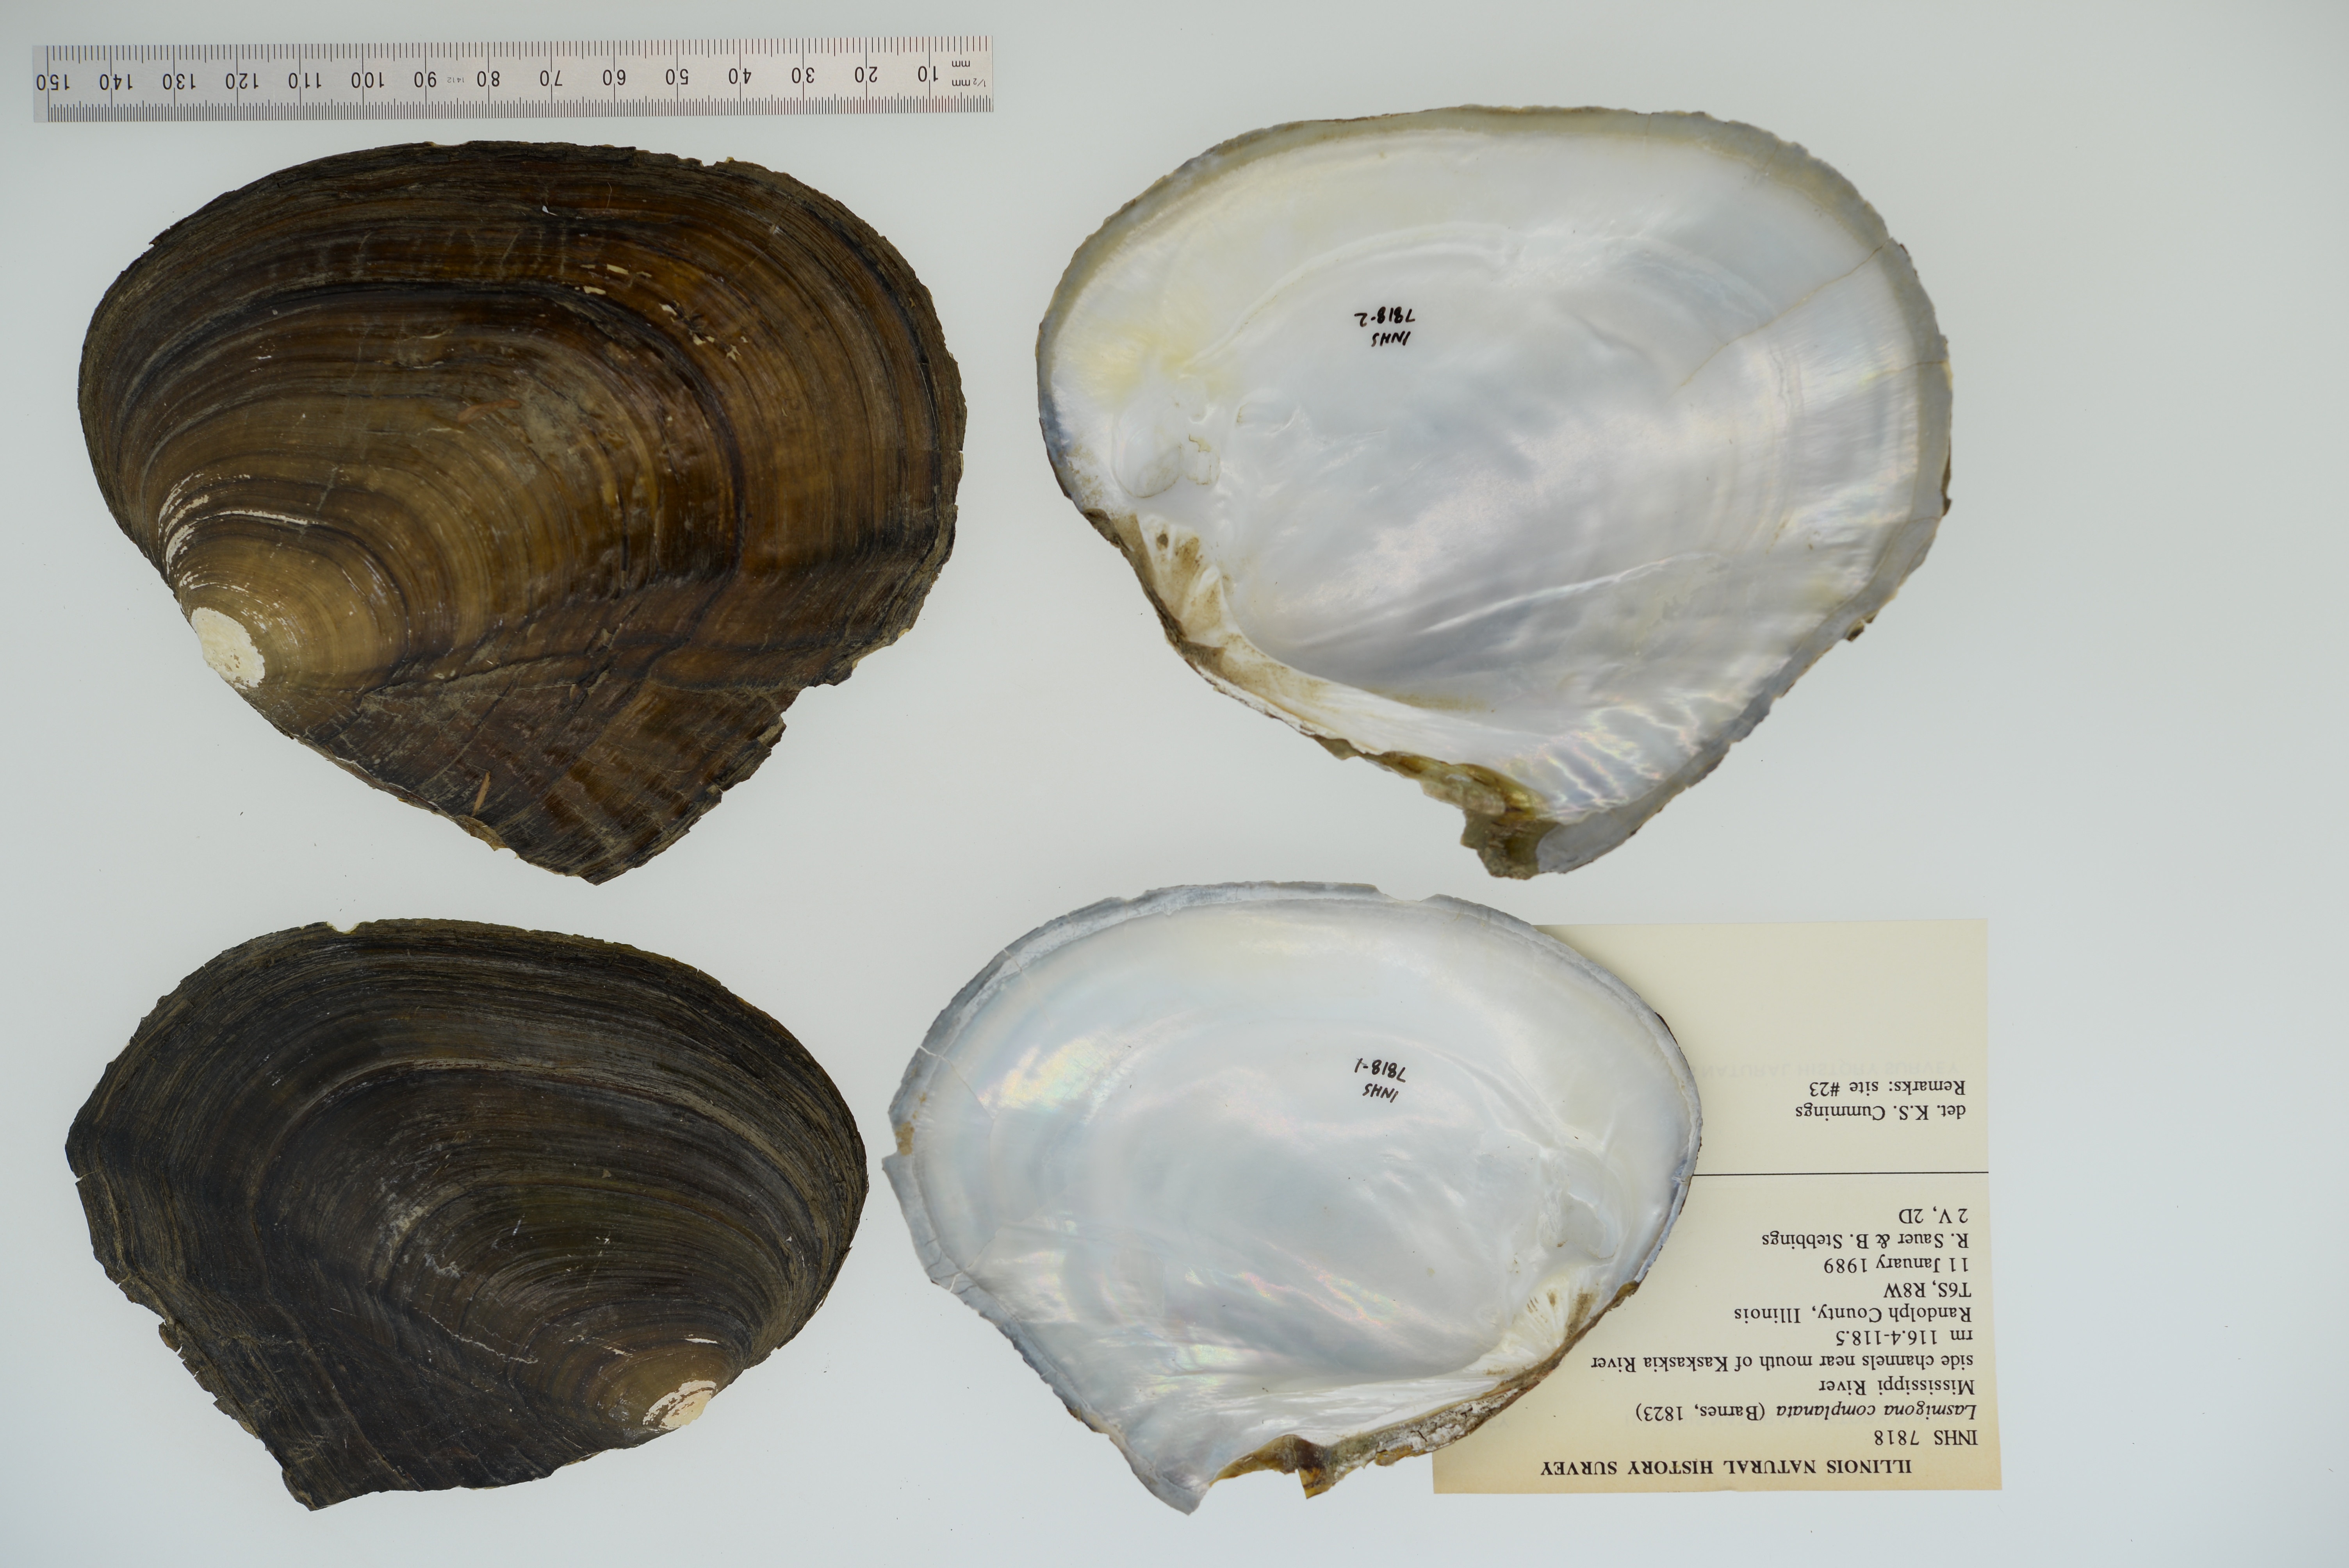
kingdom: Animalia
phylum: Mollusca
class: Bivalvia
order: Unionida
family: Unionidae
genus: Lasmigona
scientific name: Lasmigona complanata
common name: White heelsplitter
